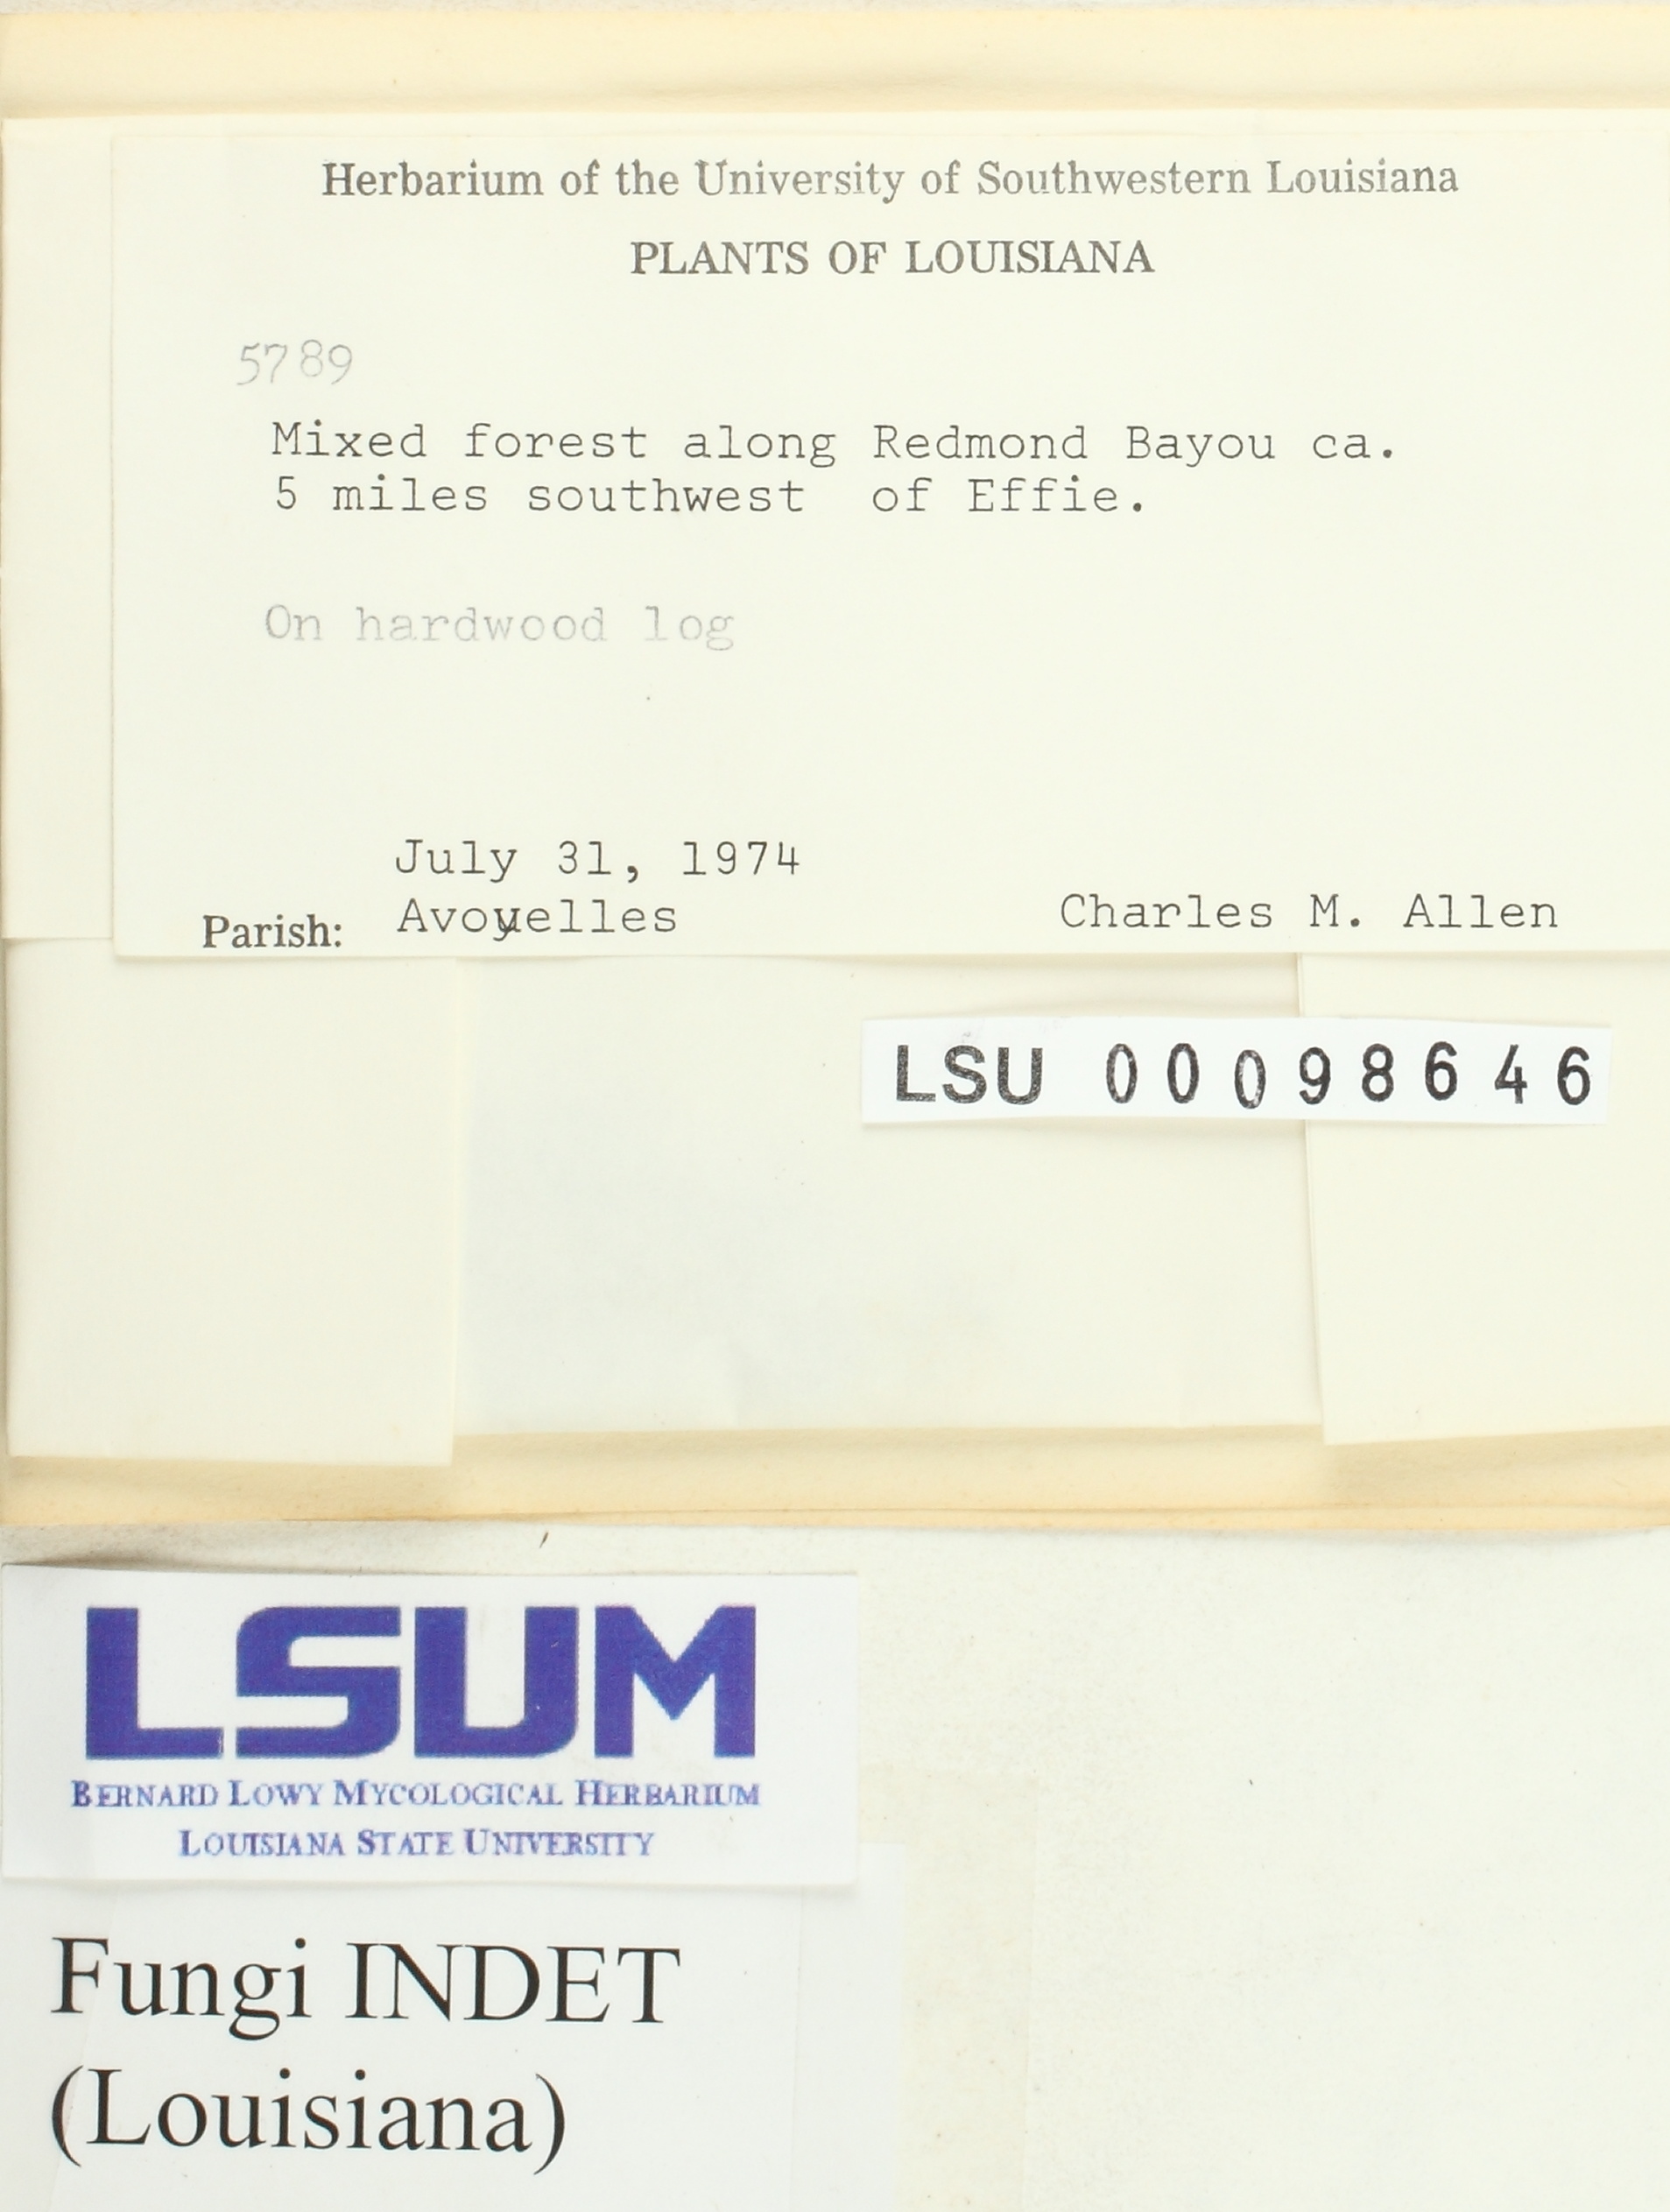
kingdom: Fungi
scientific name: Fungi
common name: Fungi
